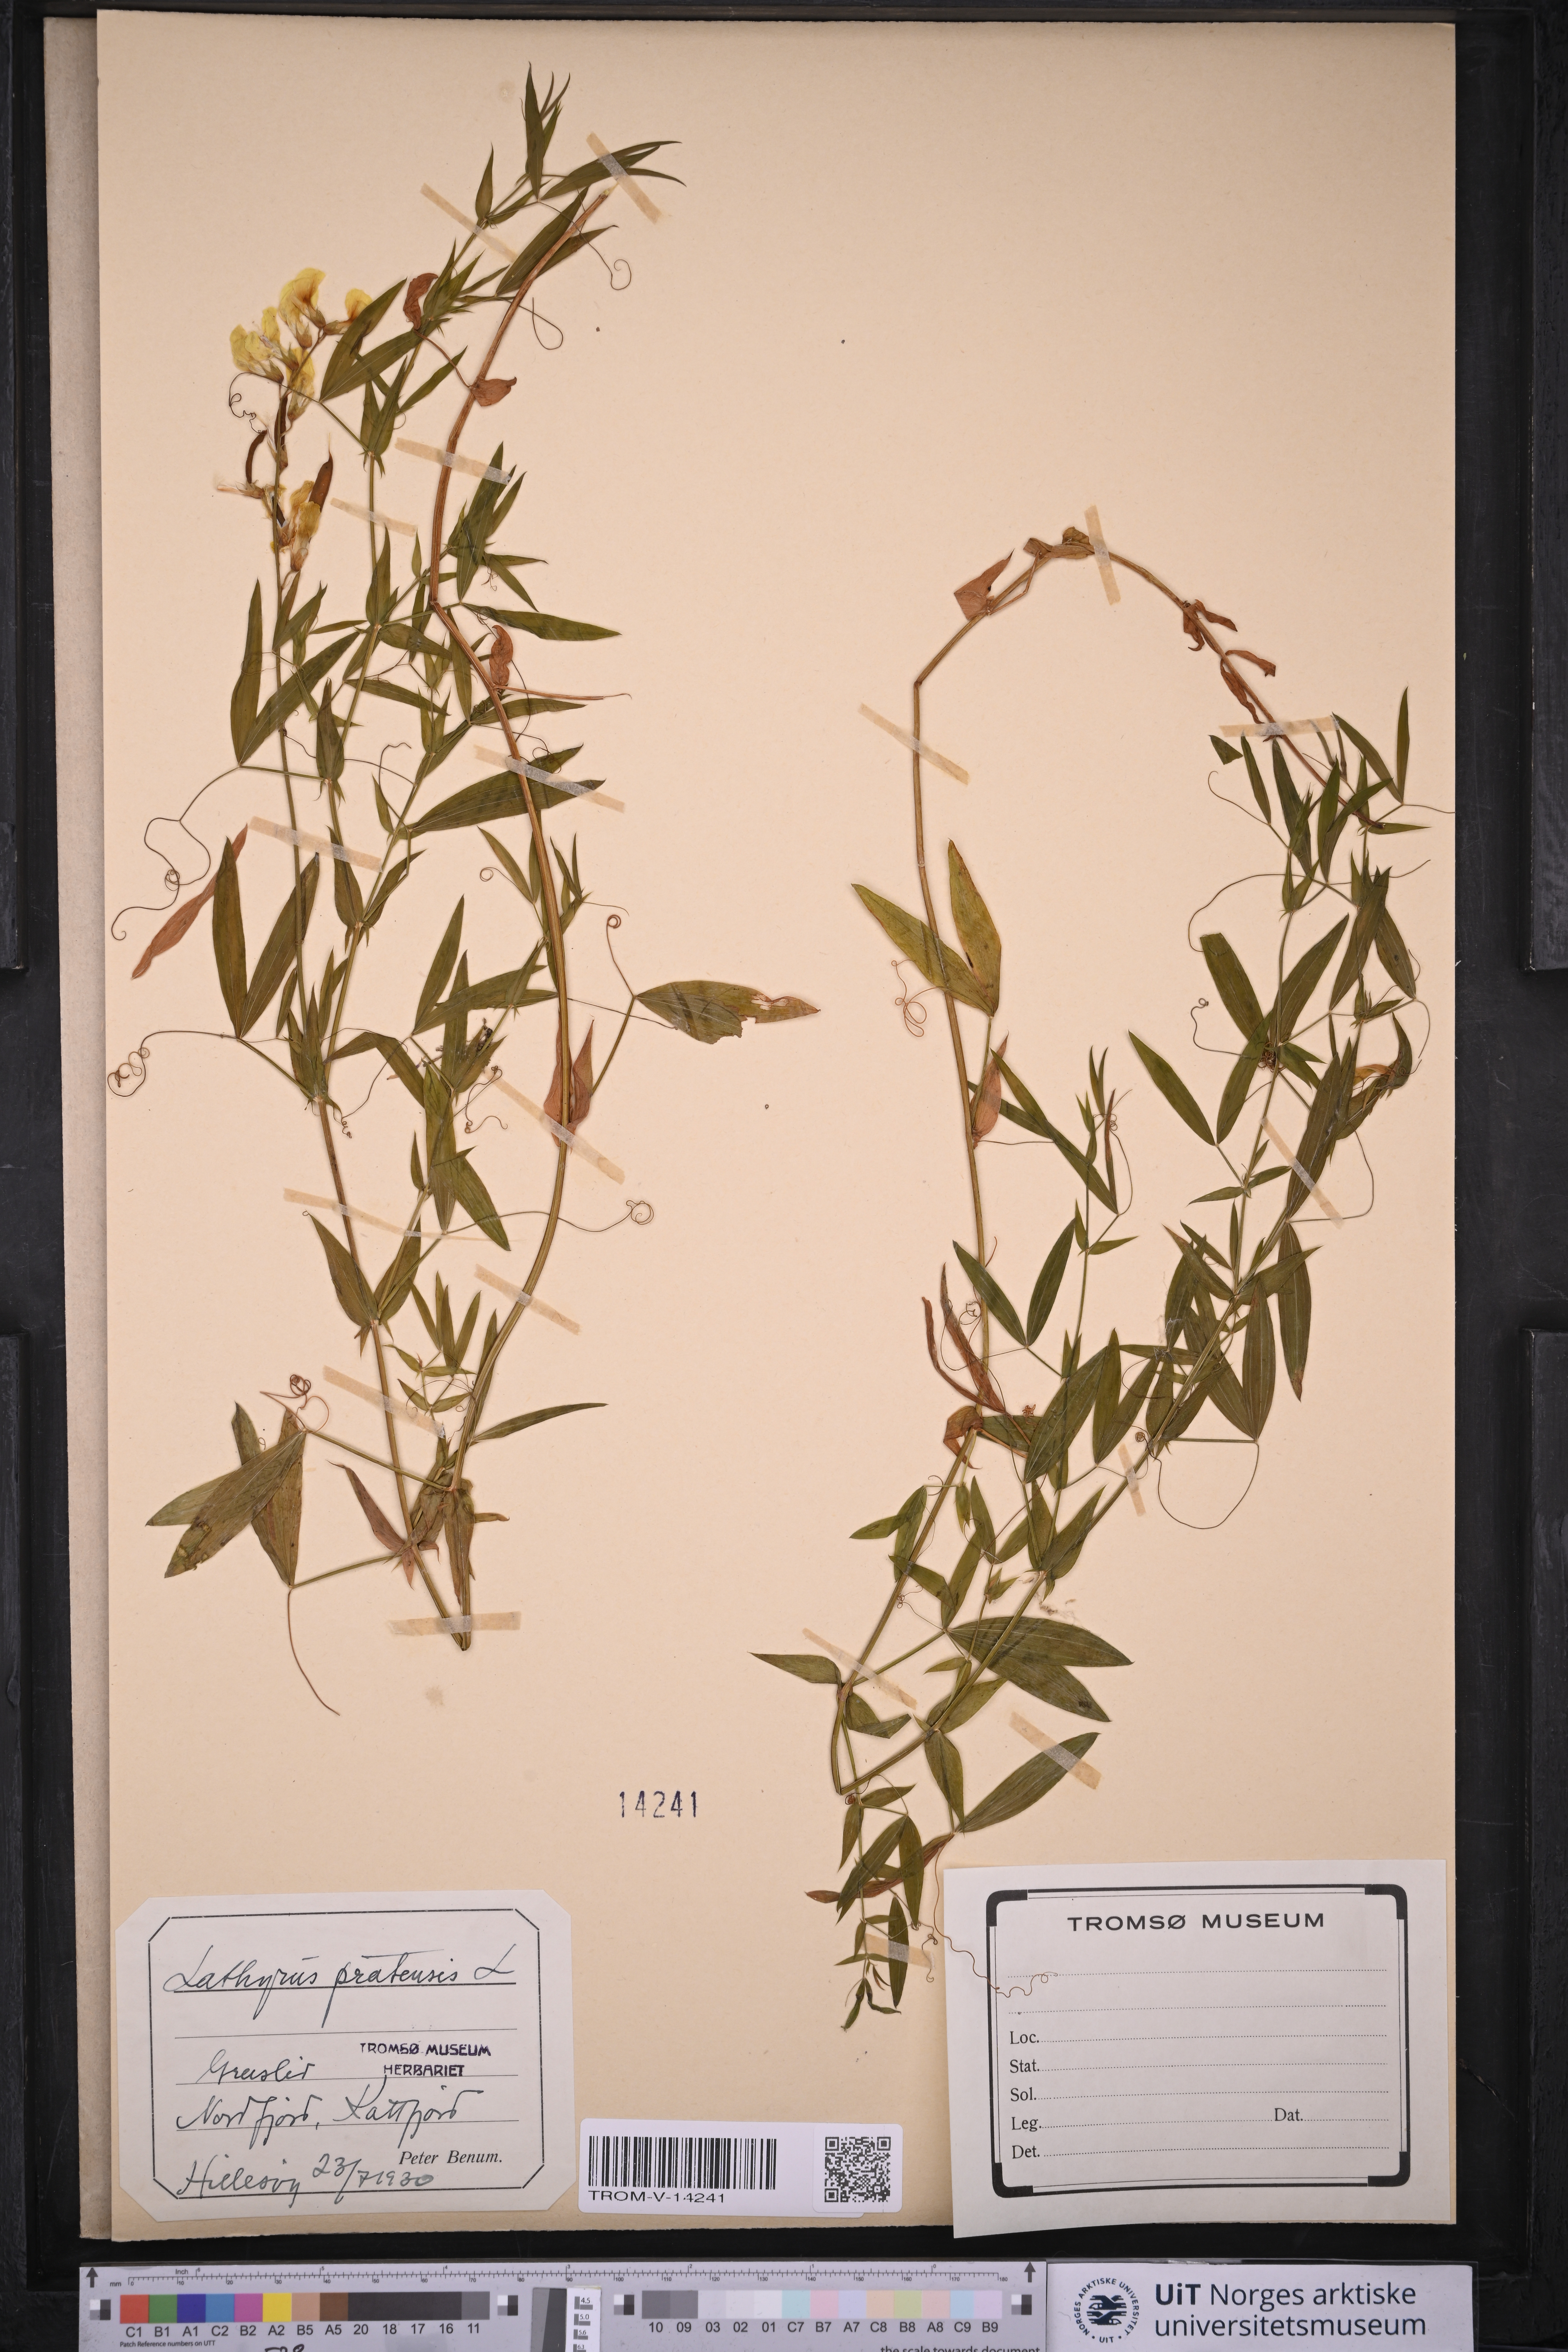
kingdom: Plantae
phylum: Tracheophyta
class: Magnoliopsida
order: Fabales
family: Fabaceae
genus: Lathyrus
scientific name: Lathyrus pratensis
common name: Meadow vetchling
